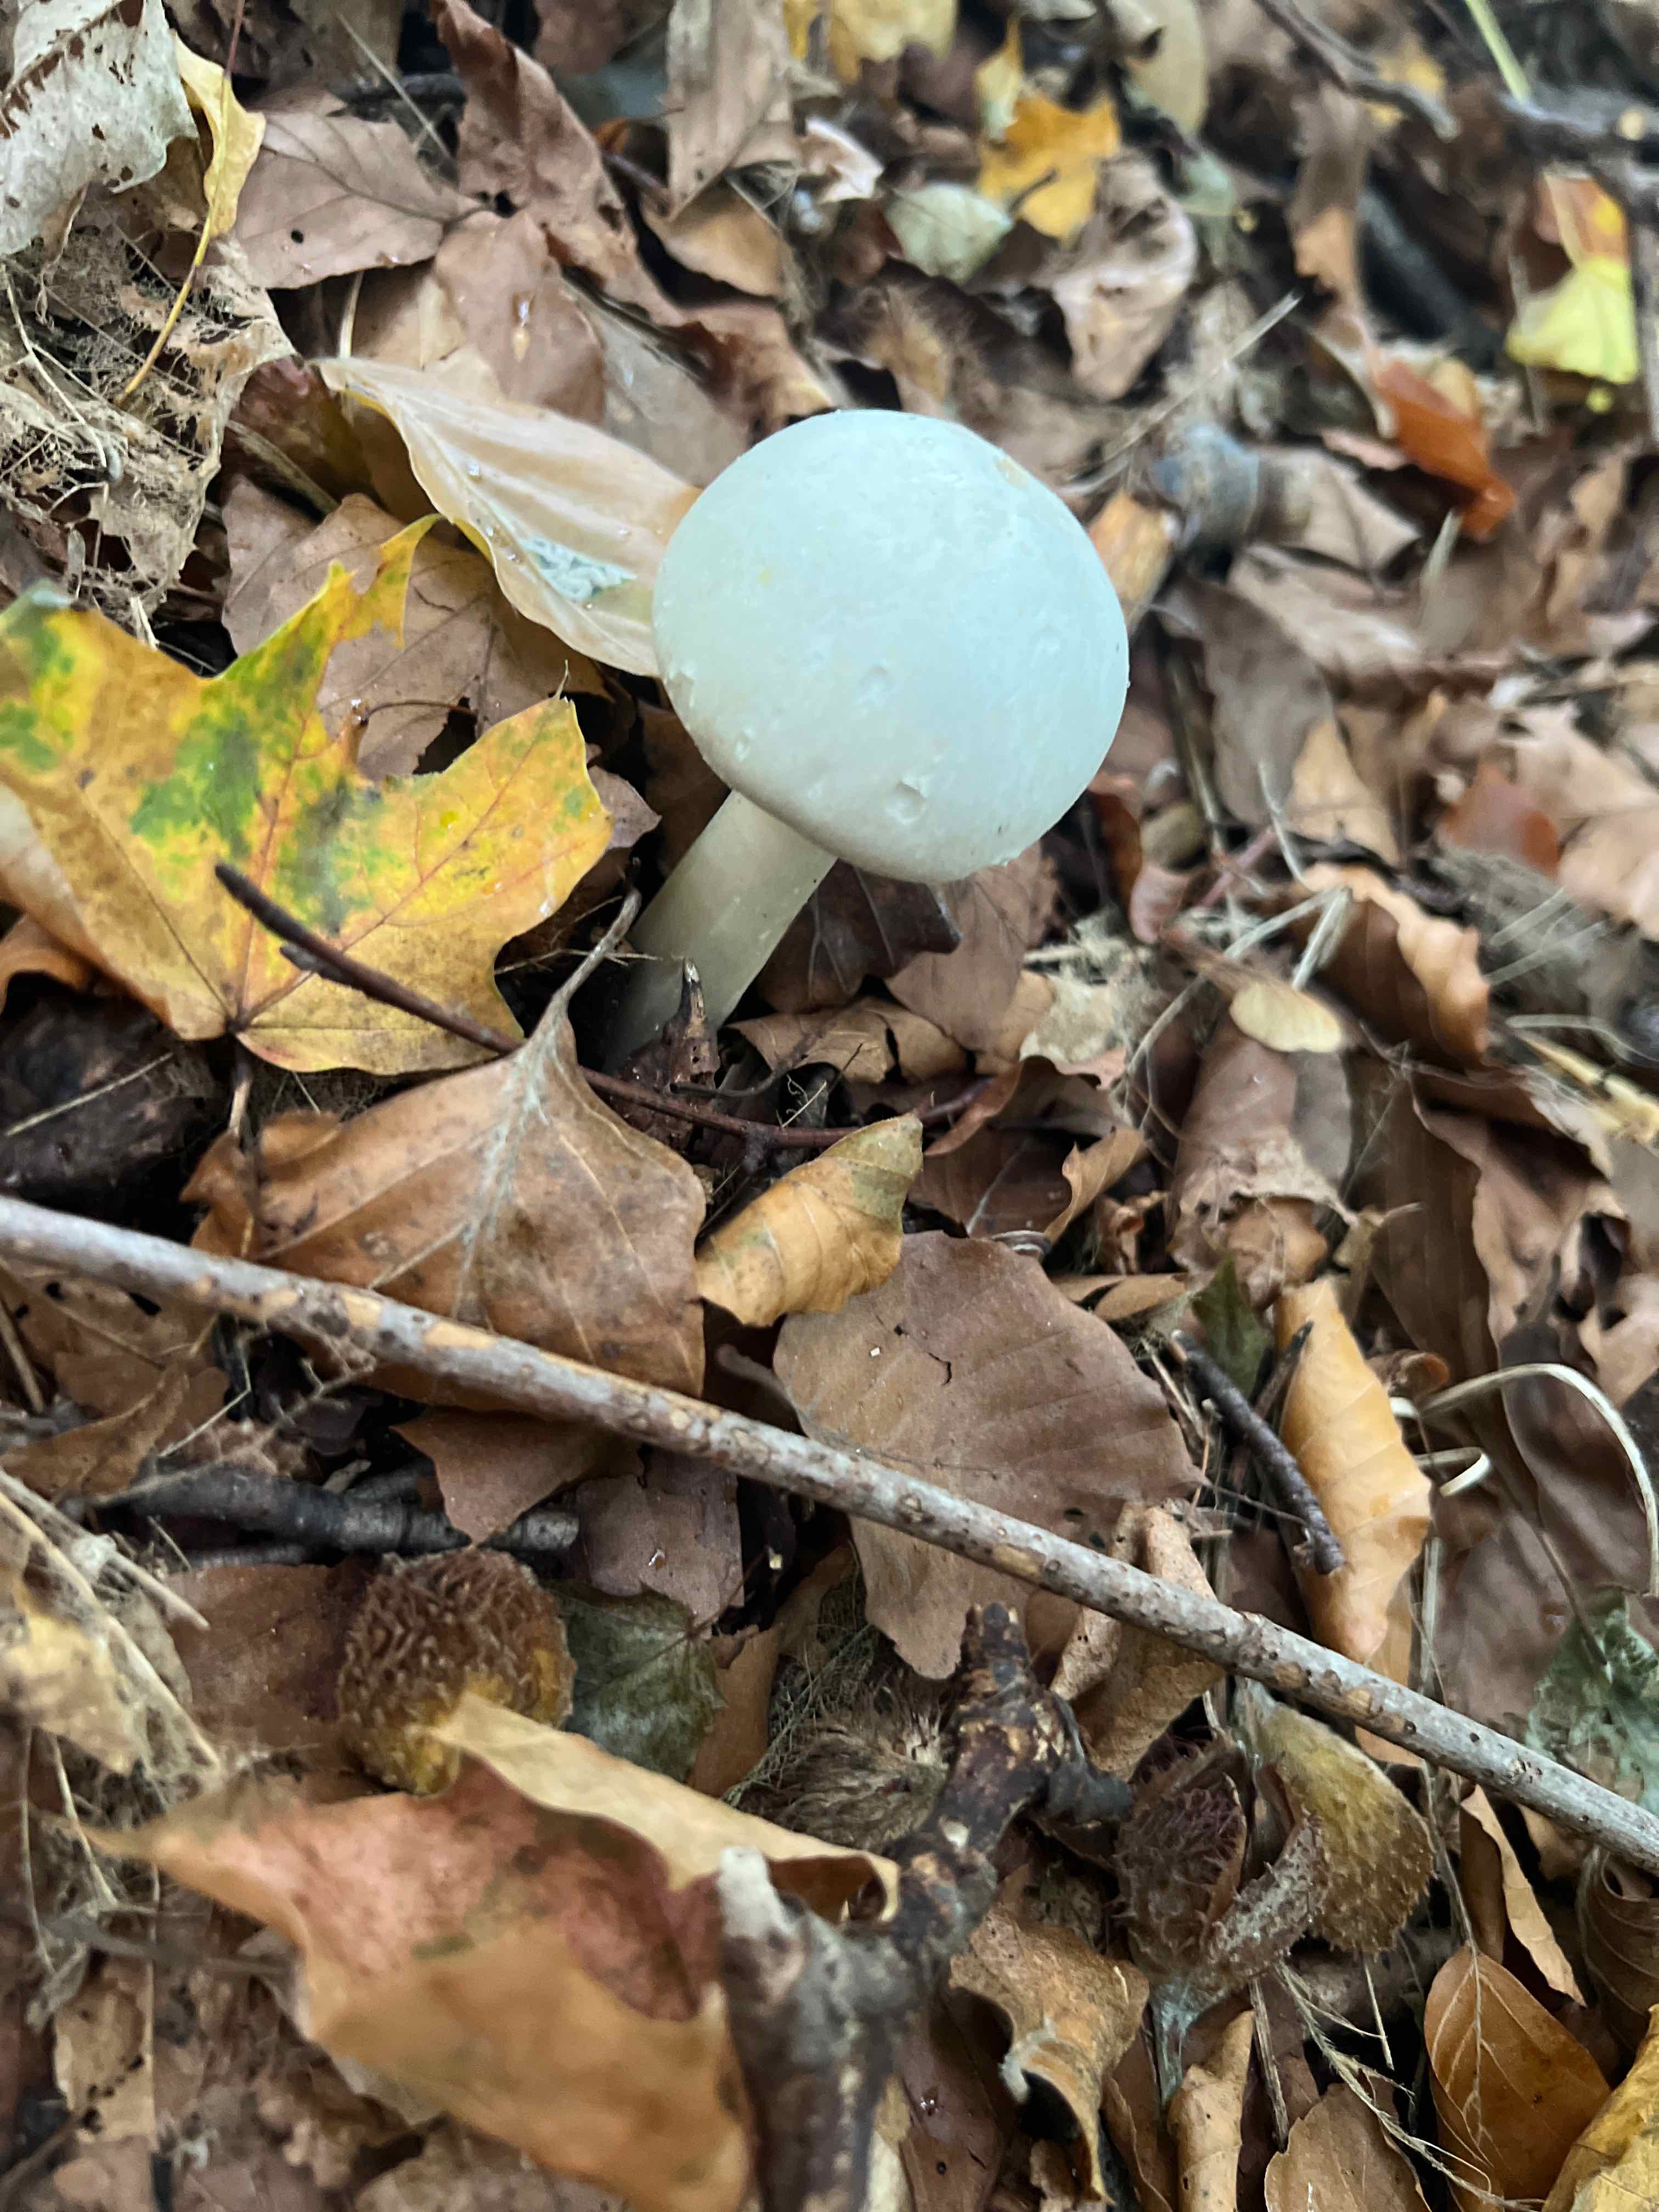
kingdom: Fungi
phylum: Basidiomycota
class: Agaricomycetes
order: Agaricales
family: Agaricaceae
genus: Agaricus
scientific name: Agaricus
